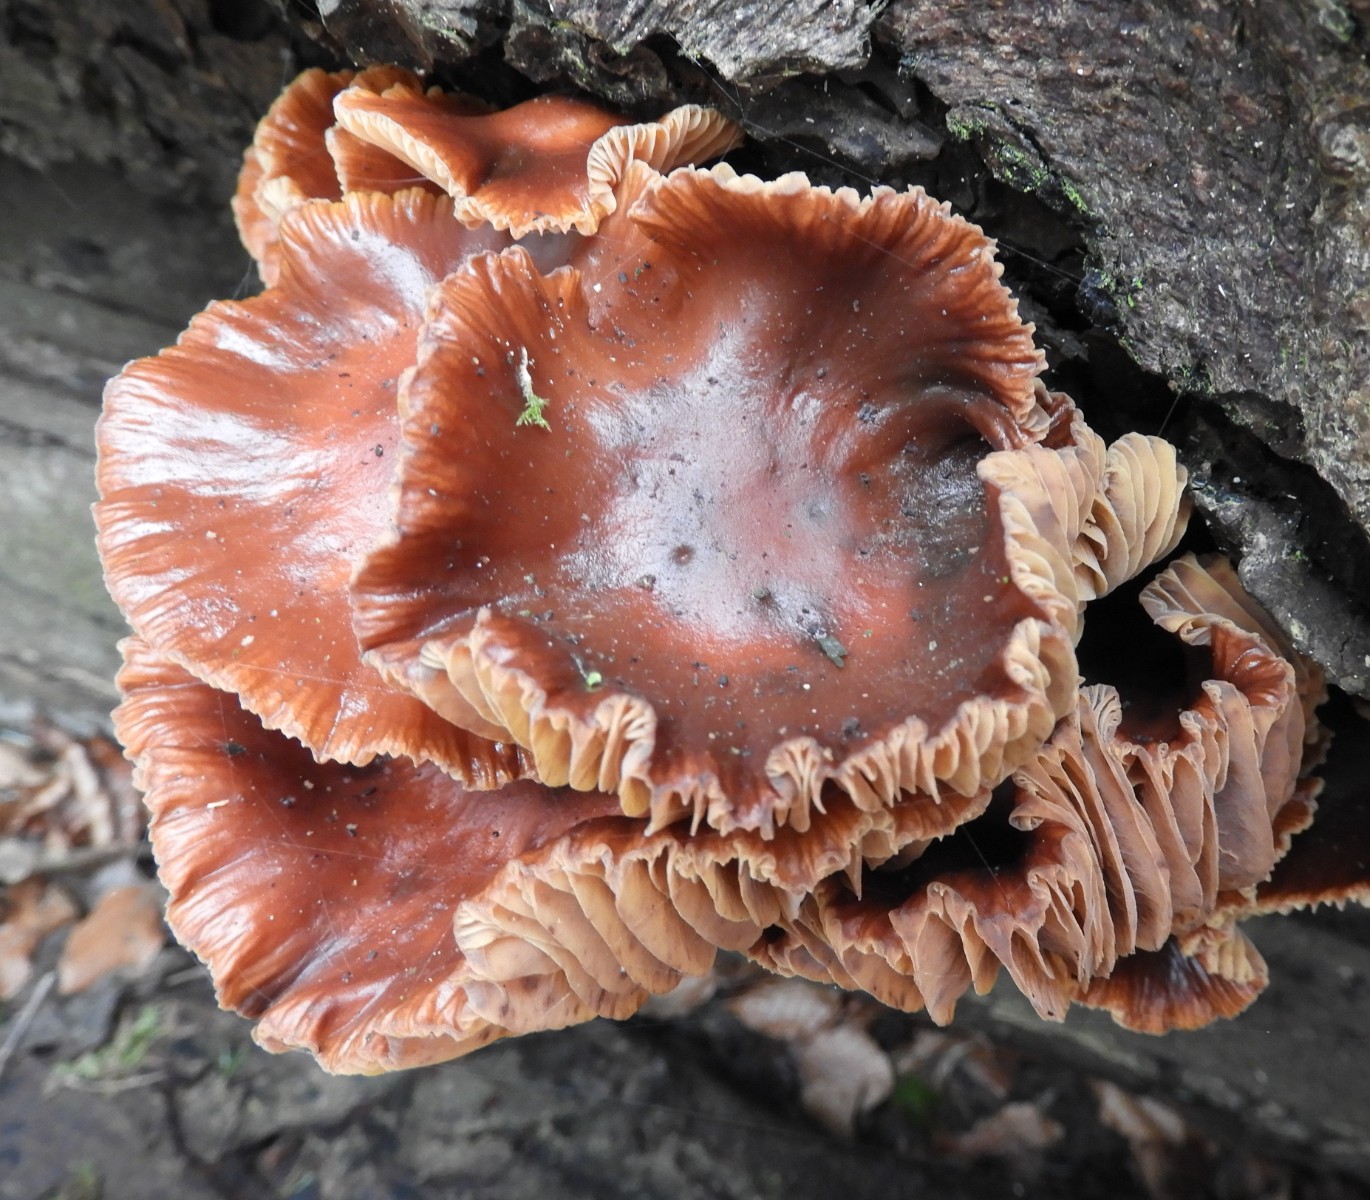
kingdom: Fungi
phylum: Basidiomycota
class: Agaricomycetes
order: Agaricales
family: Physalacriaceae
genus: Flammulina
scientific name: Flammulina velutipes
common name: gul fløjlsfod
